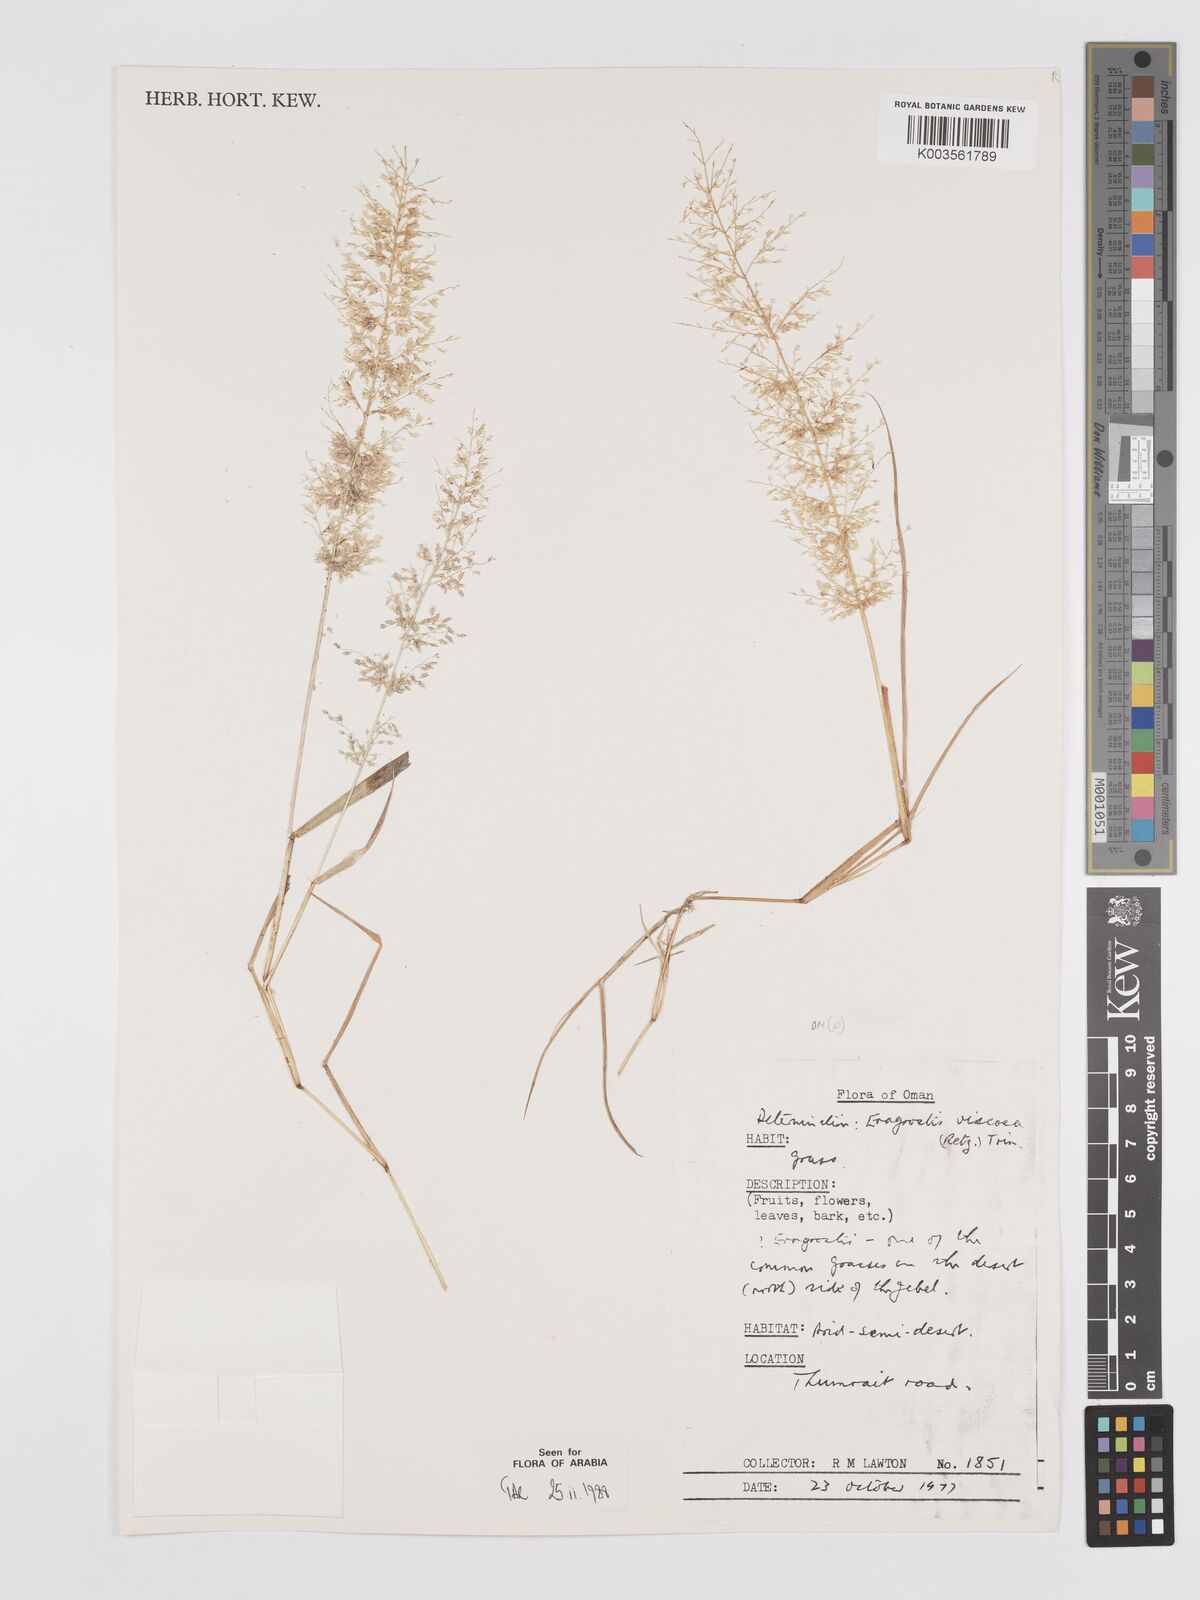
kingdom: Plantae
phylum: Tracheophyta
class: Liliopsida
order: Poales
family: Poaceae
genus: Eragrostis
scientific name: Eragrostis viscosa
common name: Sticky love grass
